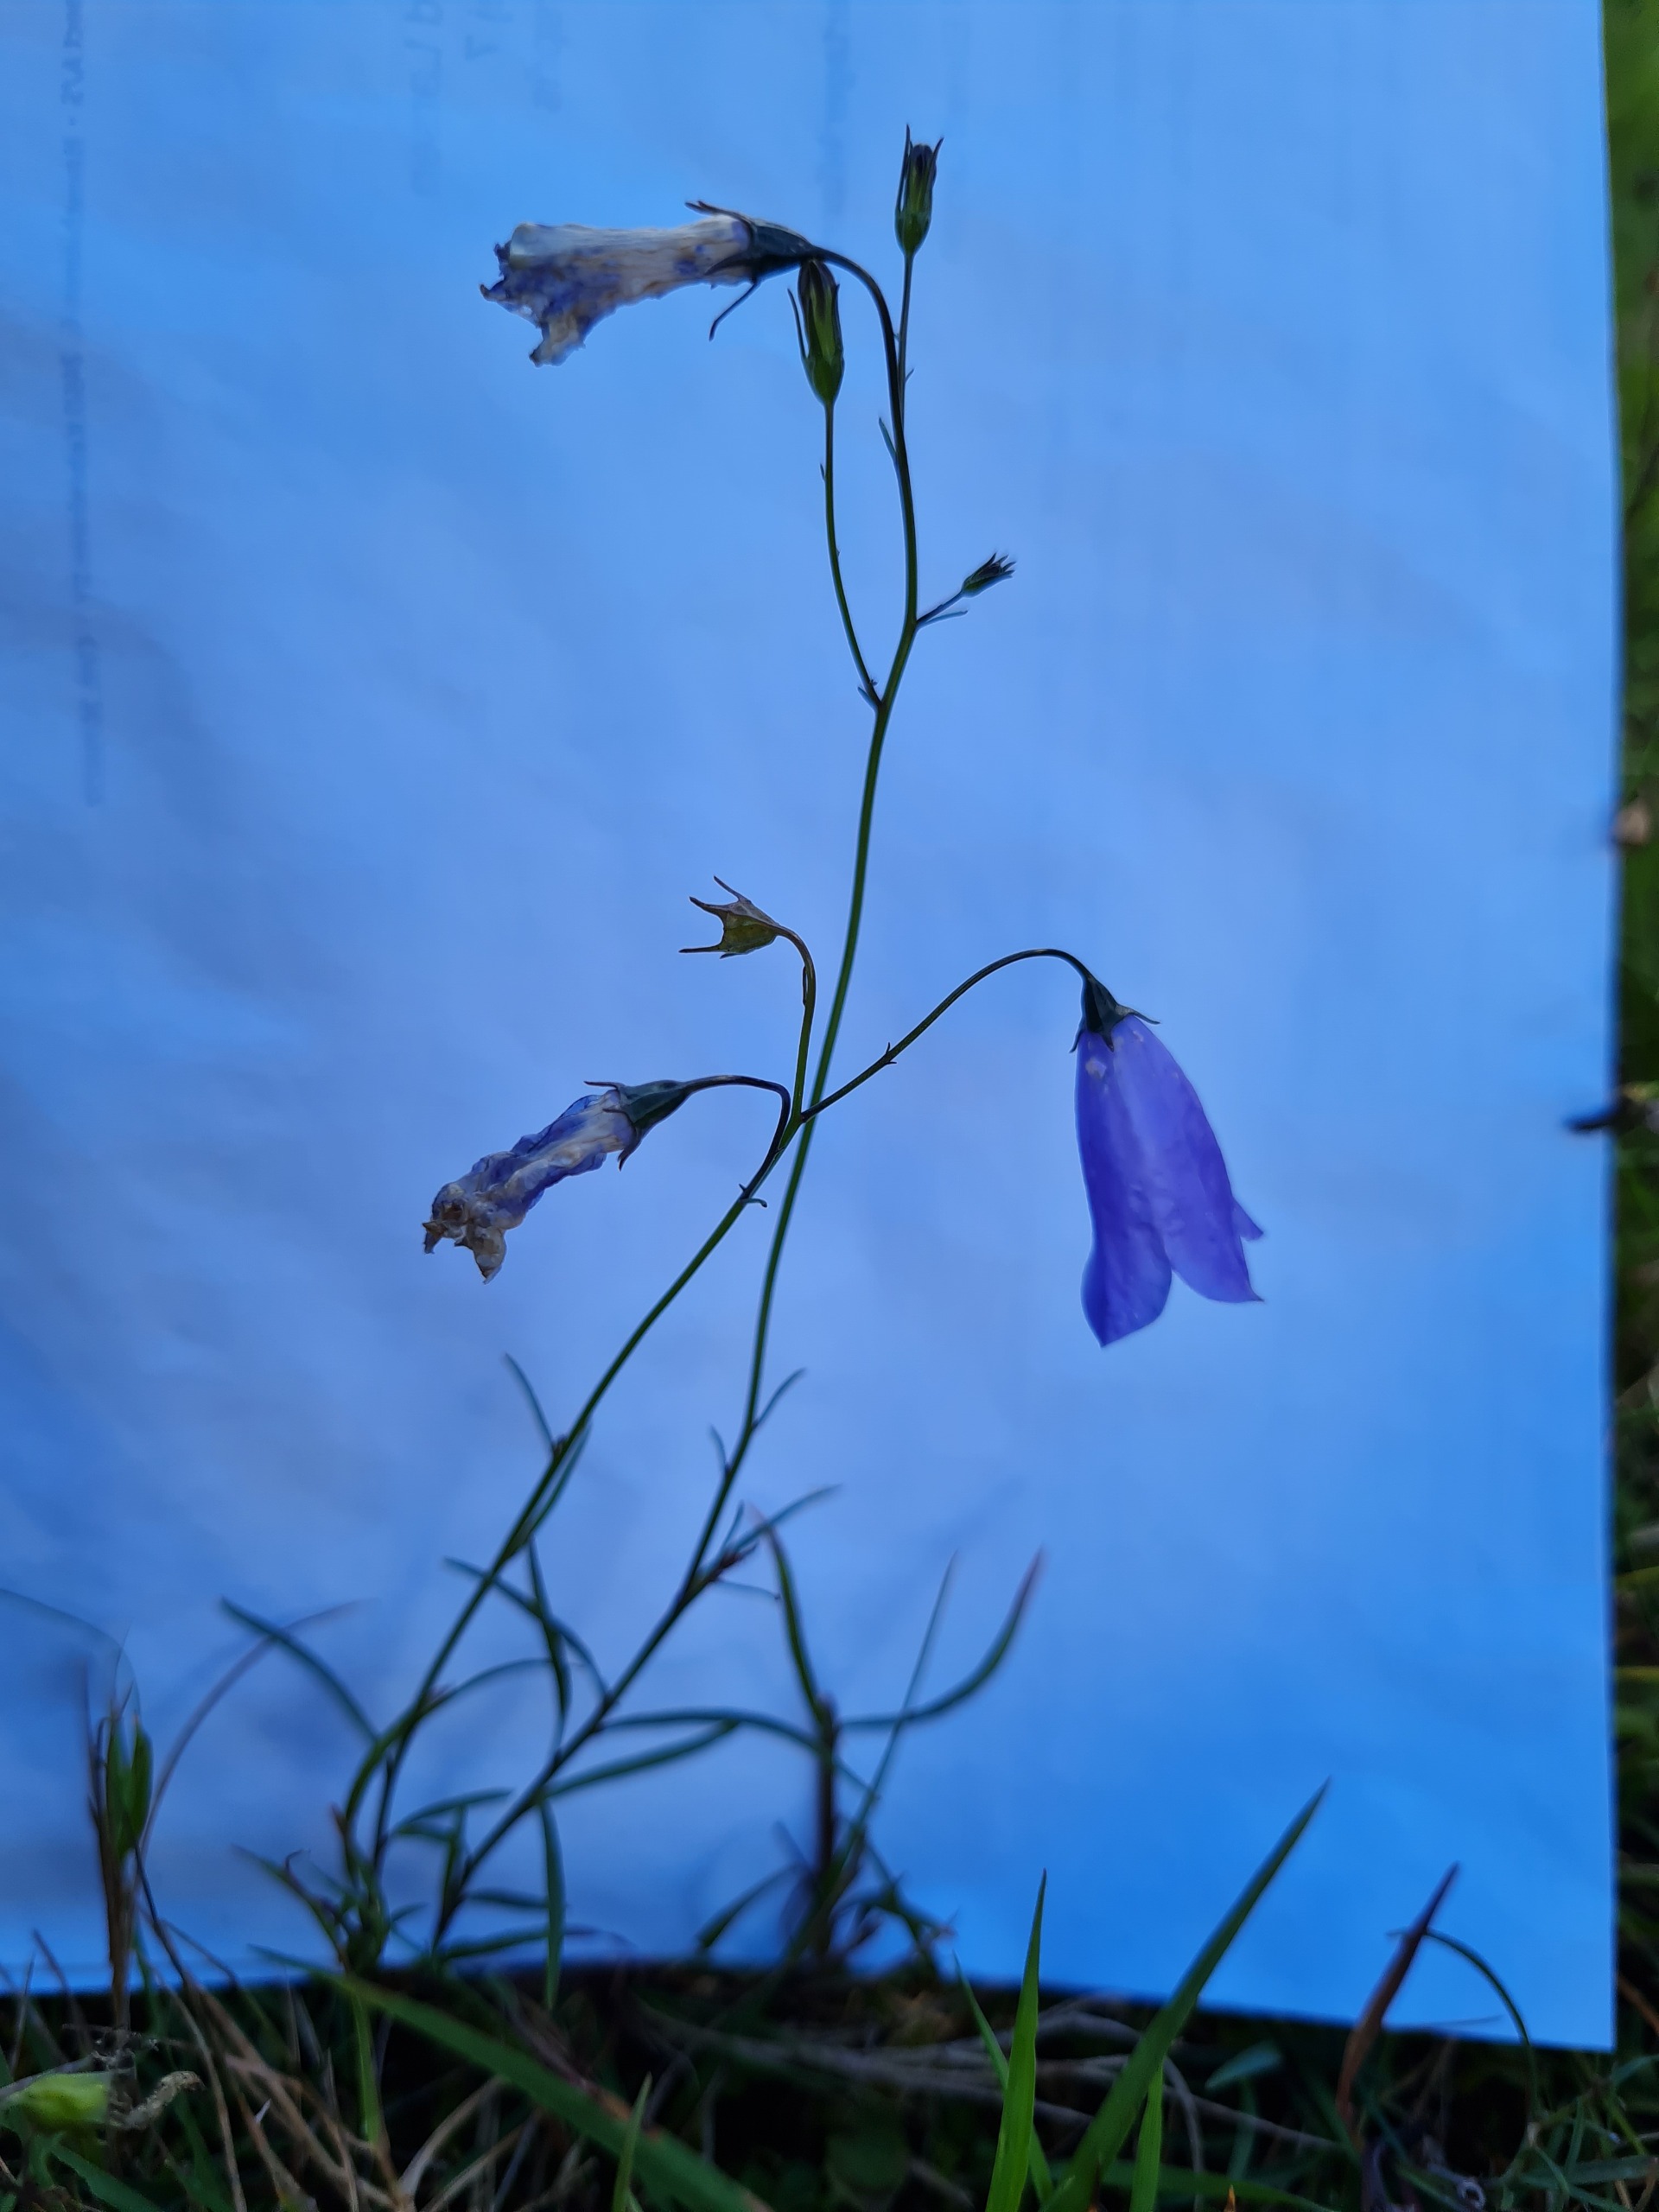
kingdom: Plantae
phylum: Tracheophyta
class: Magnoliopsida
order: Asterales
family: Campanulaceae
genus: Campanula
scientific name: Campanula rotundifolia
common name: Liden klokke
